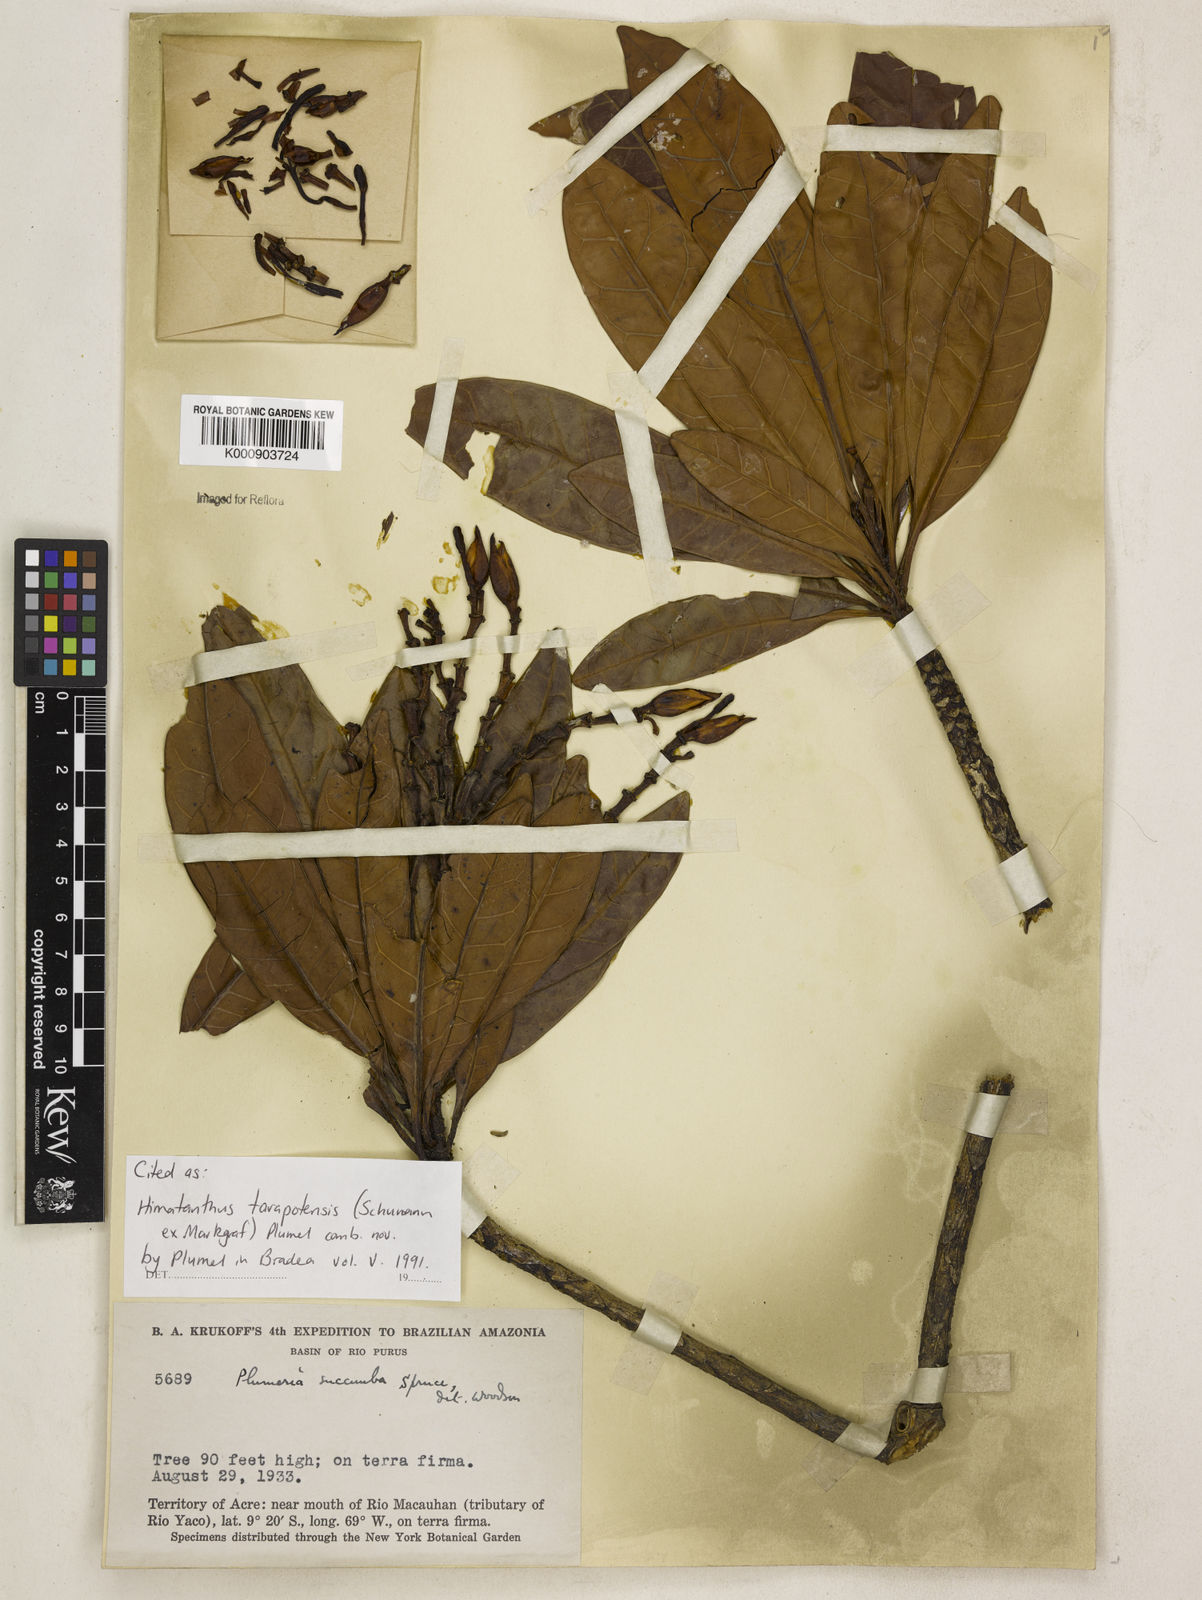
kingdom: Plantae
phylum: Tracheophyta
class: Magnoliopsida
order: Gentianales
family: Apocynaceae
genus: Himatanthus
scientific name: Himatanthus tarapotensis
